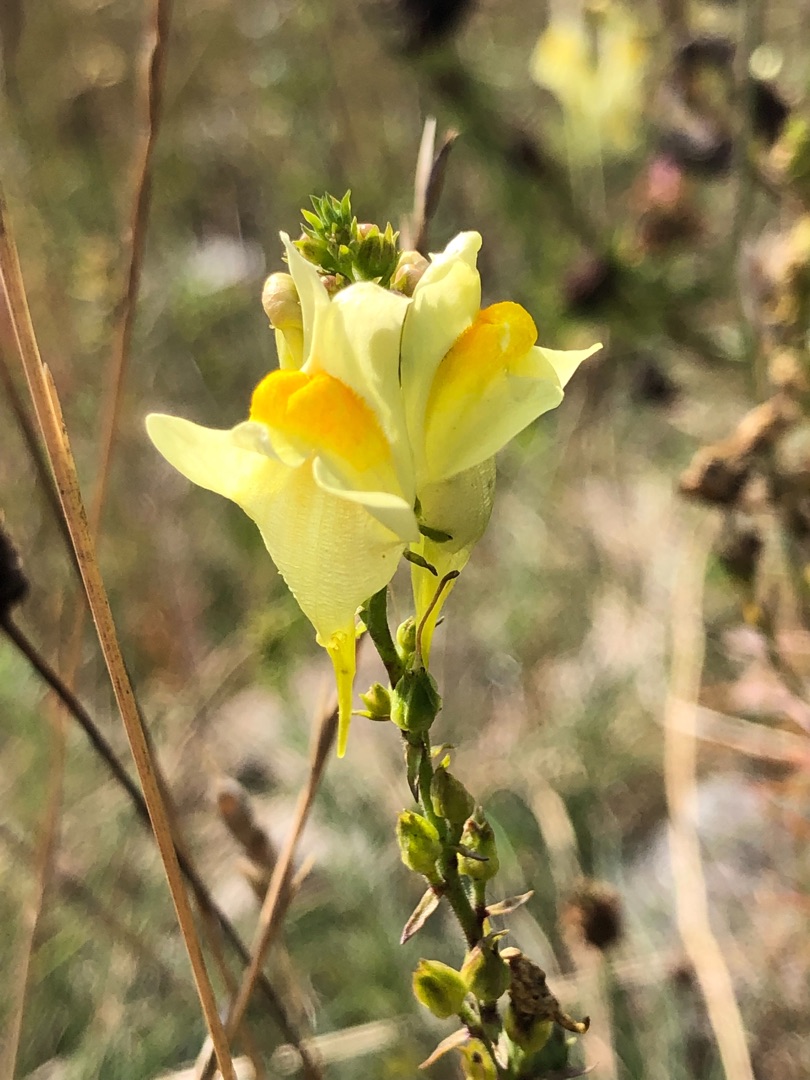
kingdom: Plantae
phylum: Tracheophyta
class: Magnoliopsida
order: Lamiales
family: Plantaginaceae
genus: Linaria
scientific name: Linaria vulgaris
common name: Almindelig torskemund
